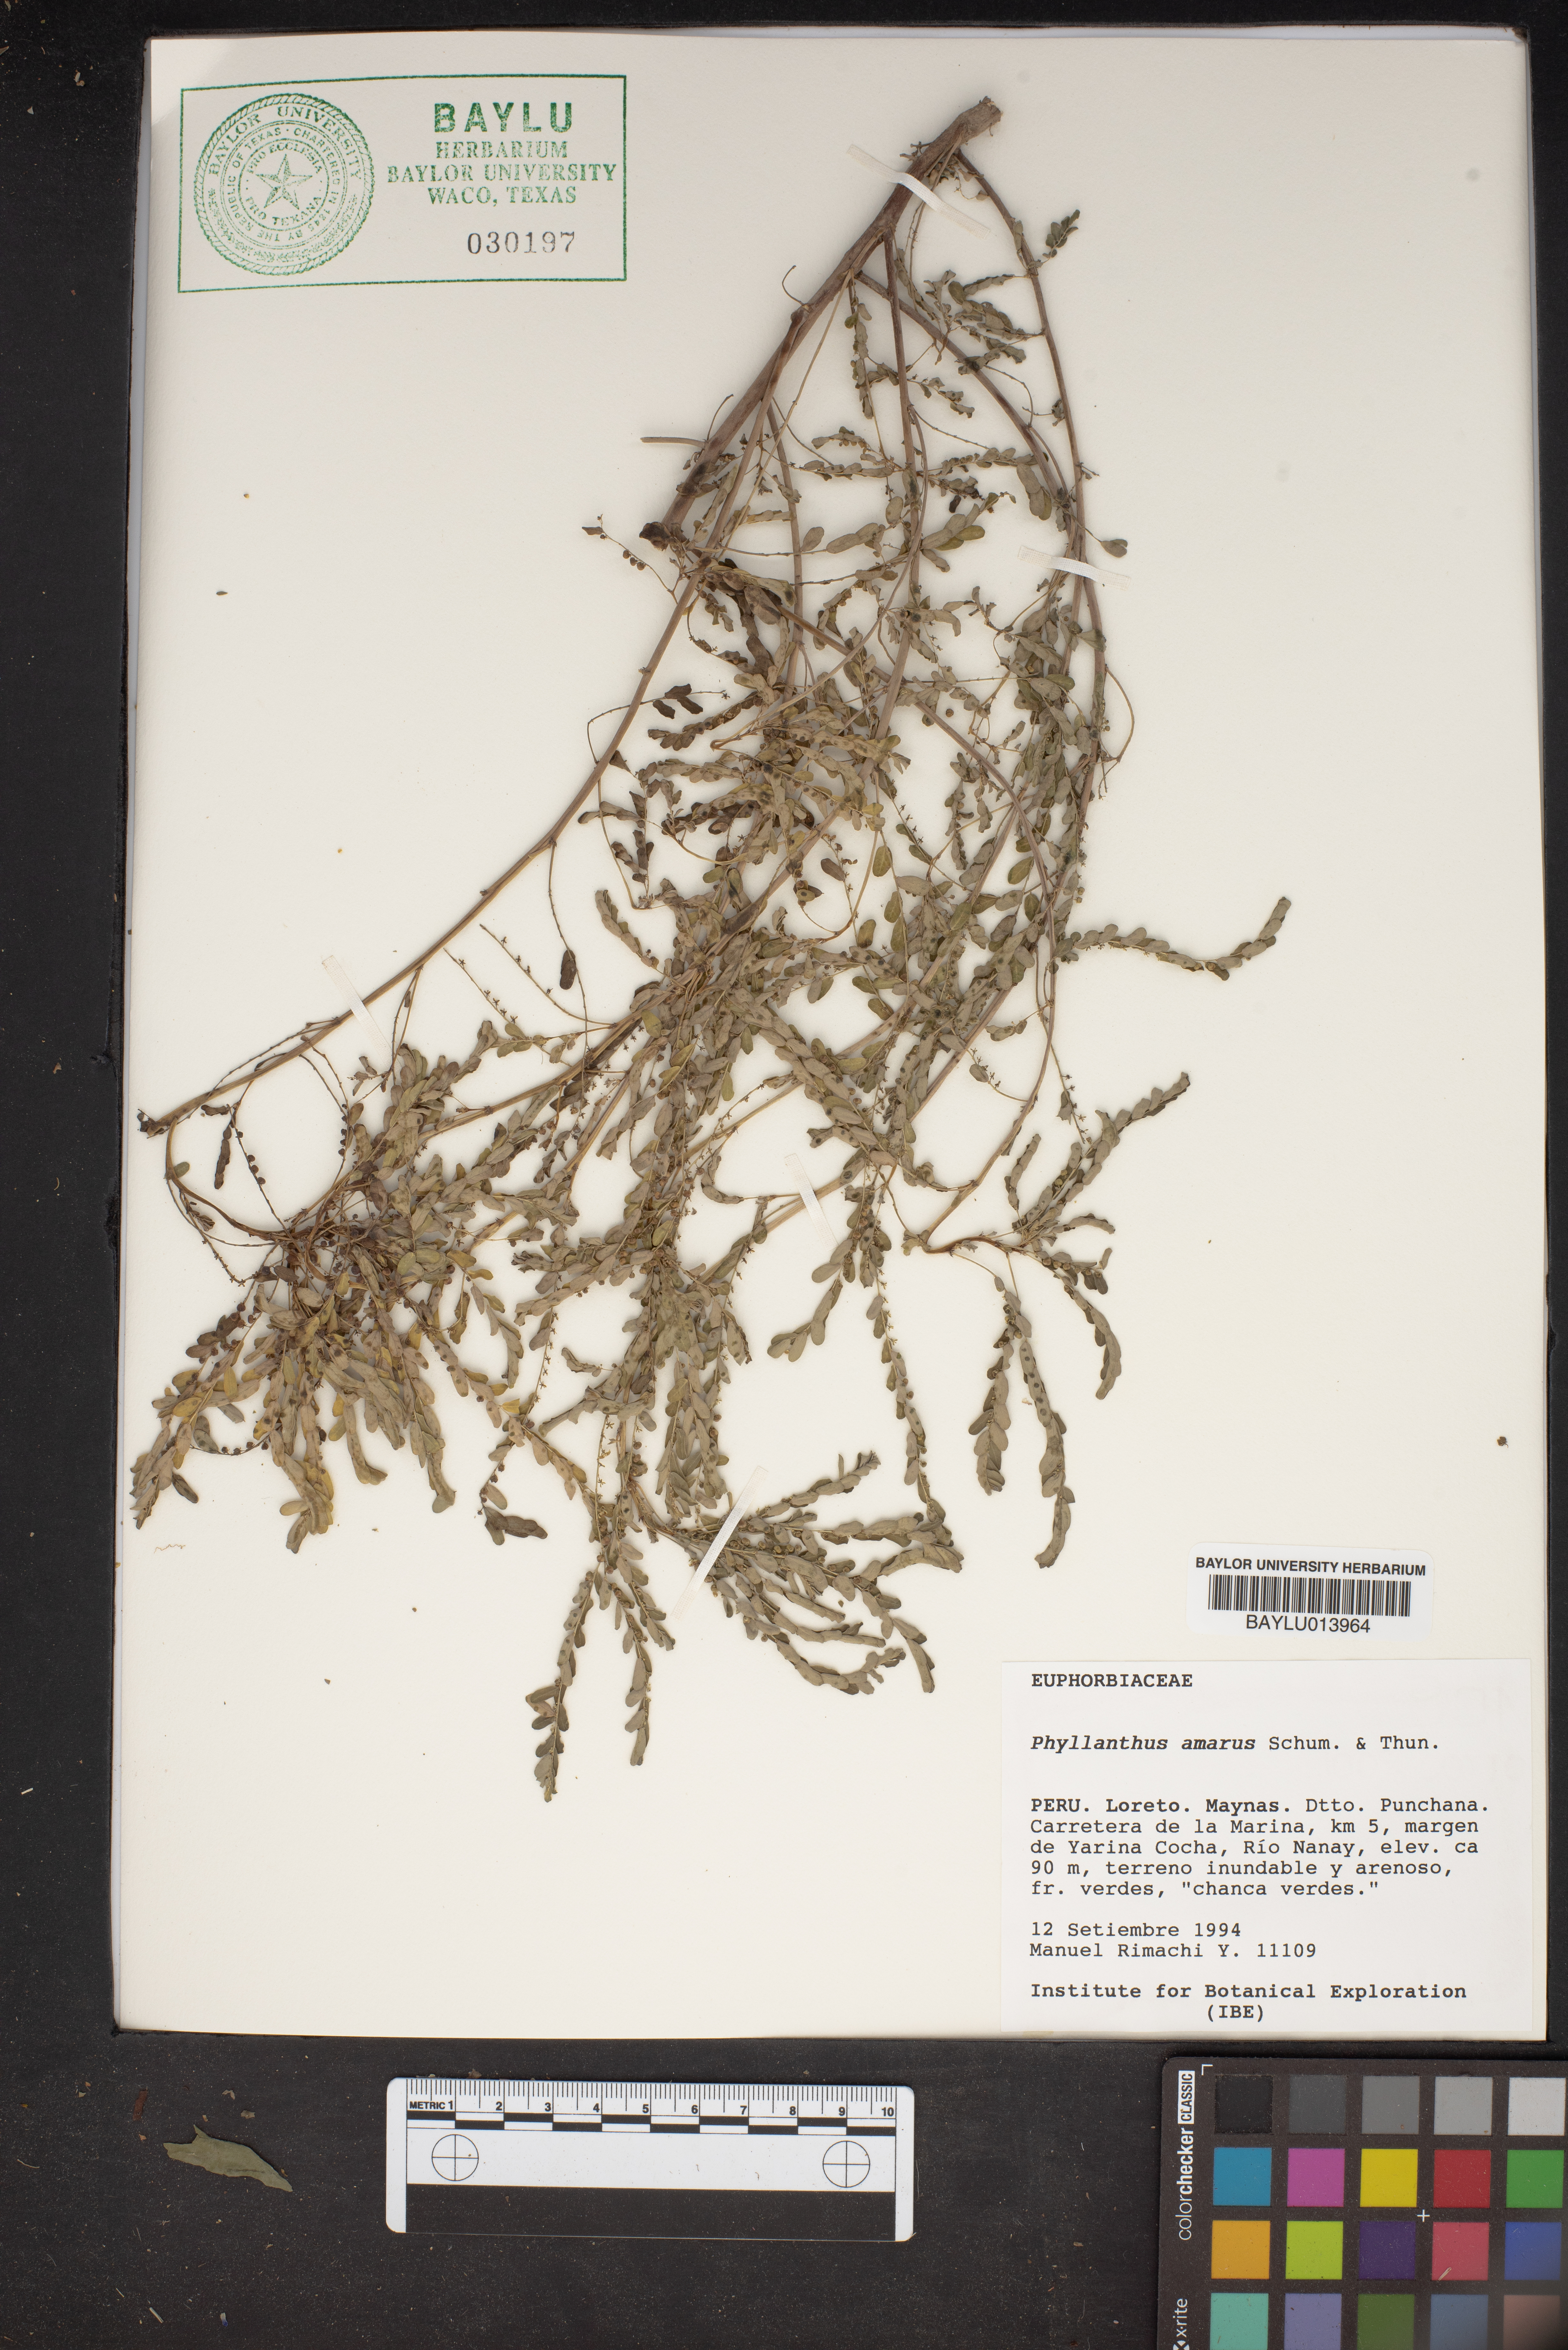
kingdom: Plantae
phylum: Tracheophyta
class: Magnoliopsida
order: Malpighiales
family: Phyllanthaceae
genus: Phyllanthus
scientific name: Phyllanthus amarus
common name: Carry me seed
